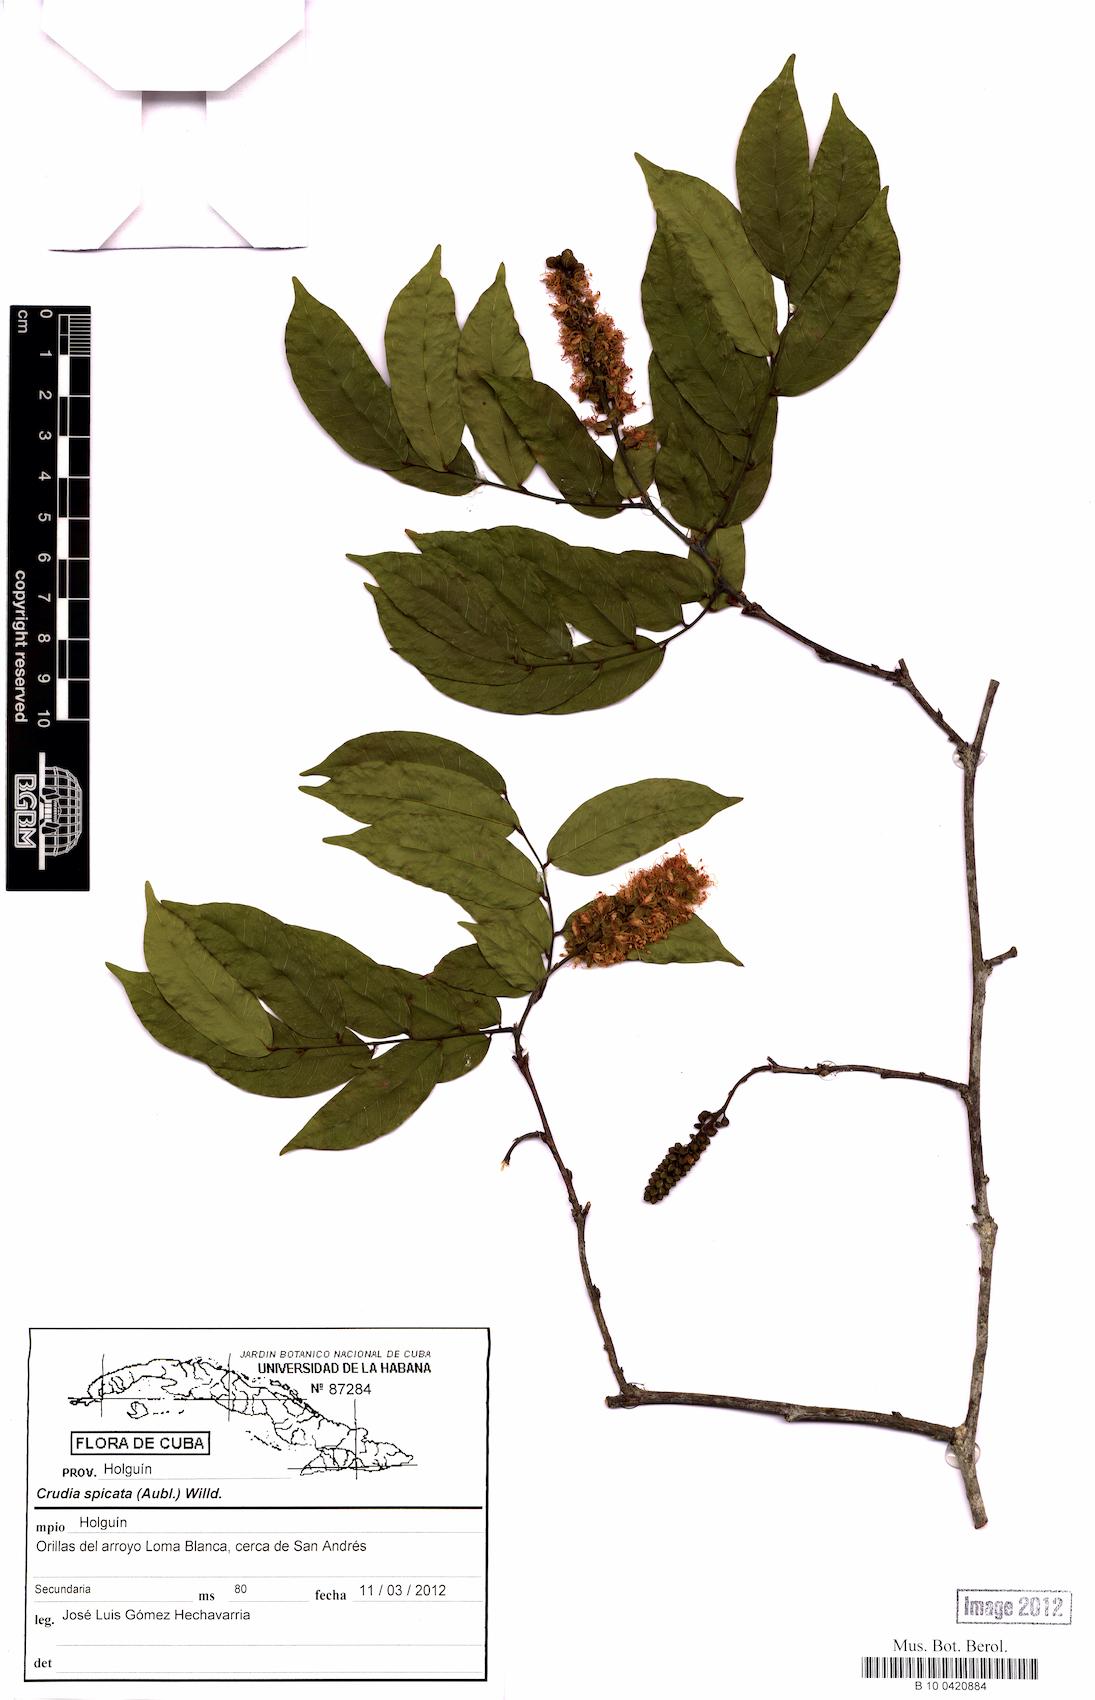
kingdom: Plantae
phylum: Tracheophyta
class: Magnoliopsida
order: Fabales
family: Fabaceae
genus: Crudia
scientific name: Crudia spicata
